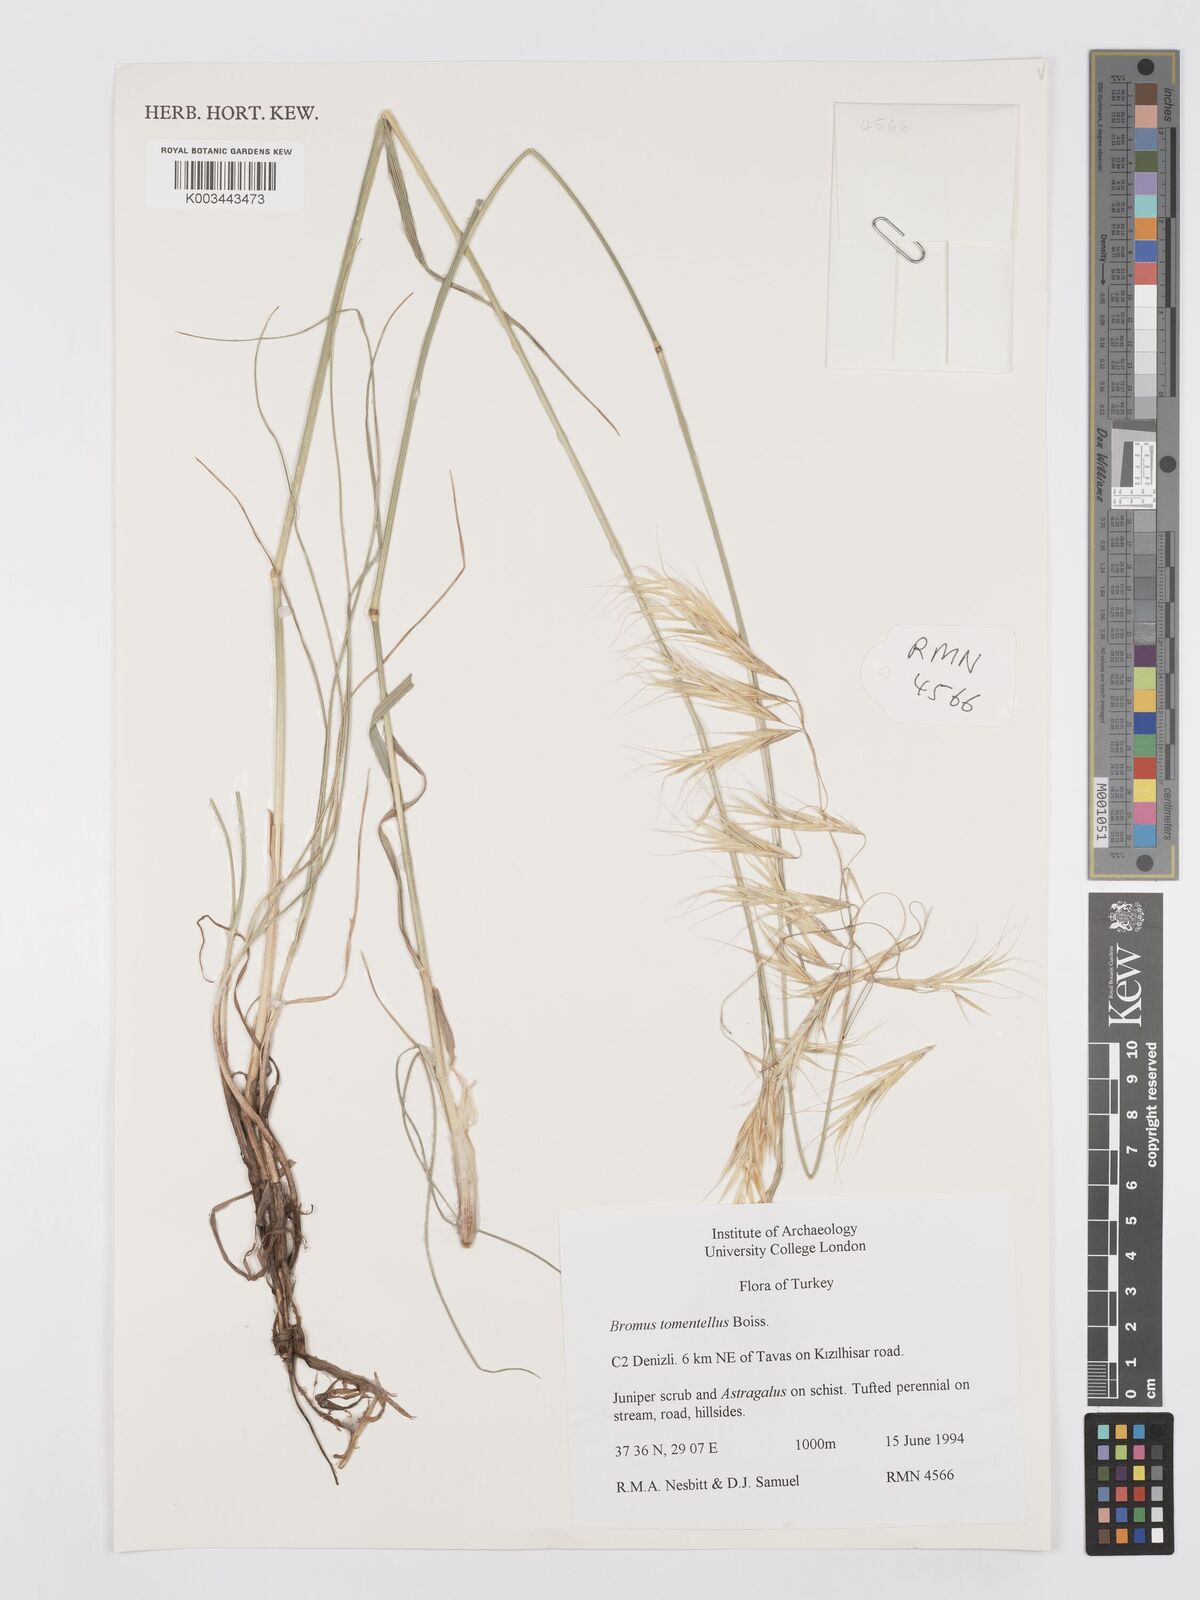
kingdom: Plantae
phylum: Tracheophyta
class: Liliopsida
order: Poales
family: Poaceae
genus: Bromus
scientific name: Bromus tomentellus
